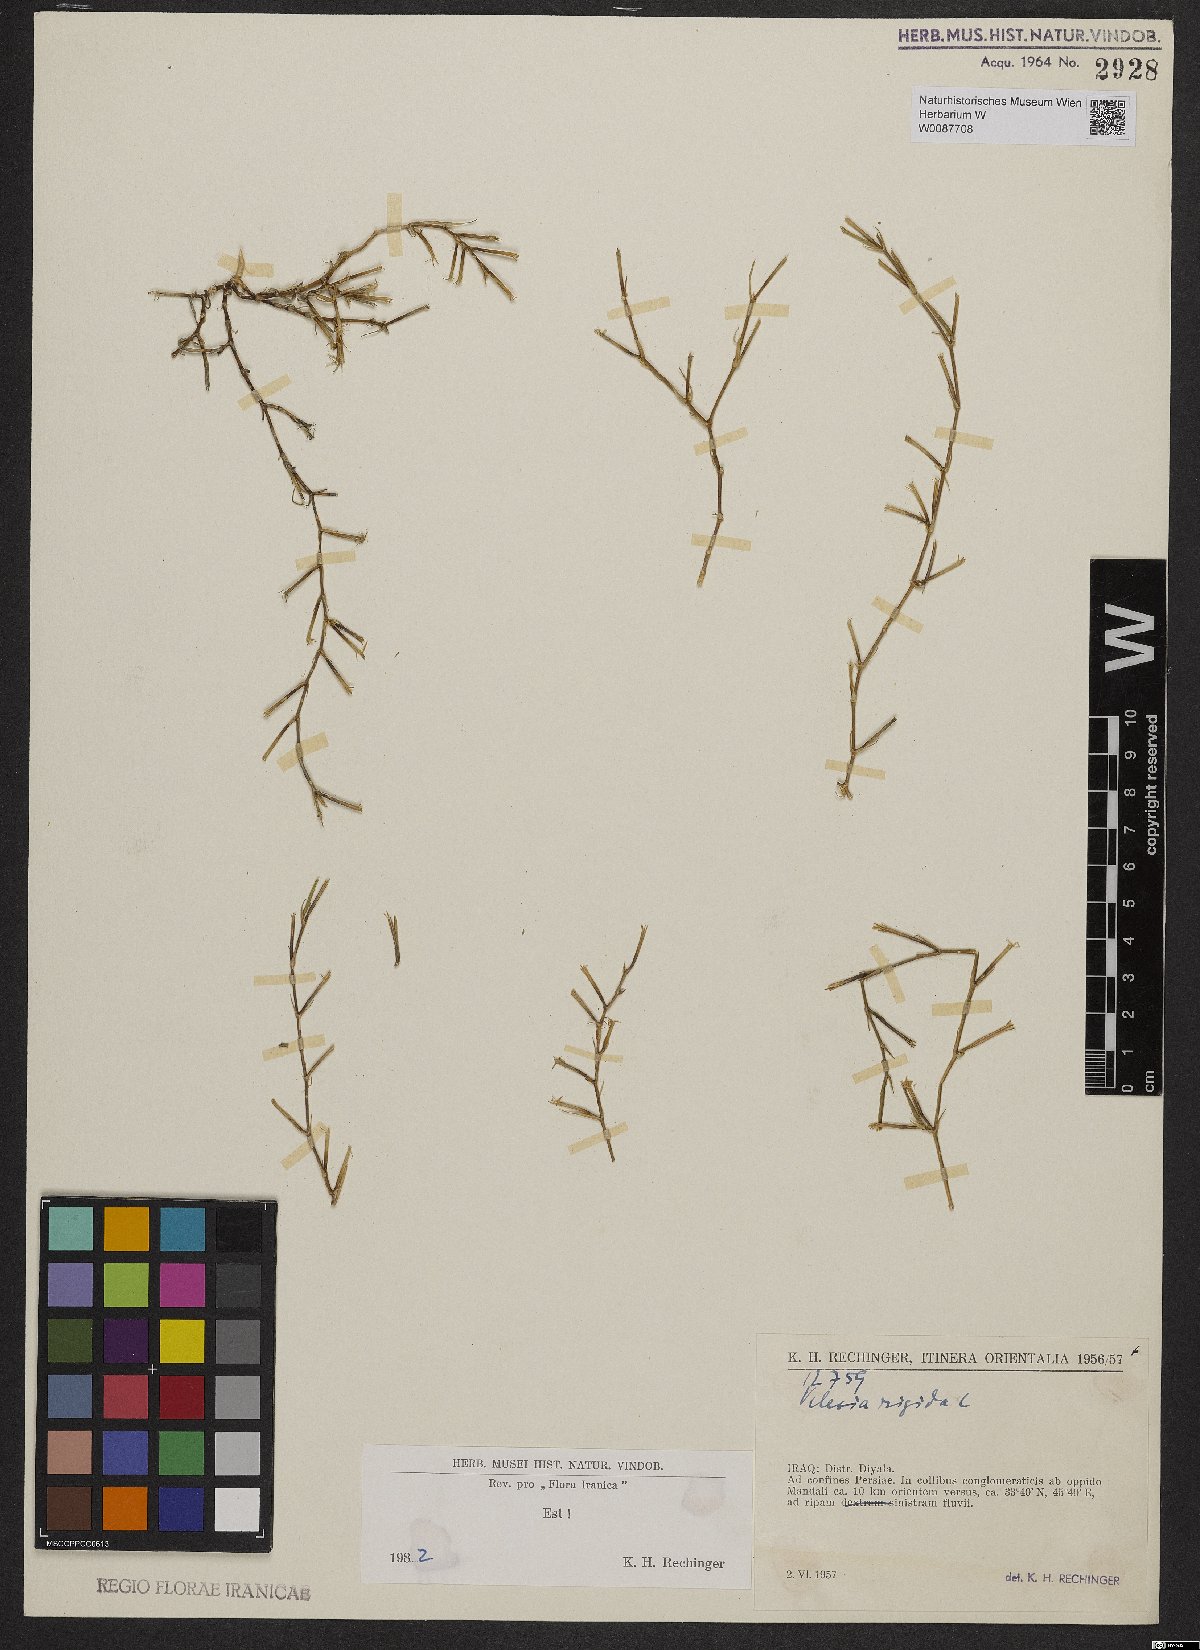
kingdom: Plantae
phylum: Tracheophyta
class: Magnoliopsida
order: Caryophyllales
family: Caryophyllaceae
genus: Dianthus
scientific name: Dianthus nudiflorus
